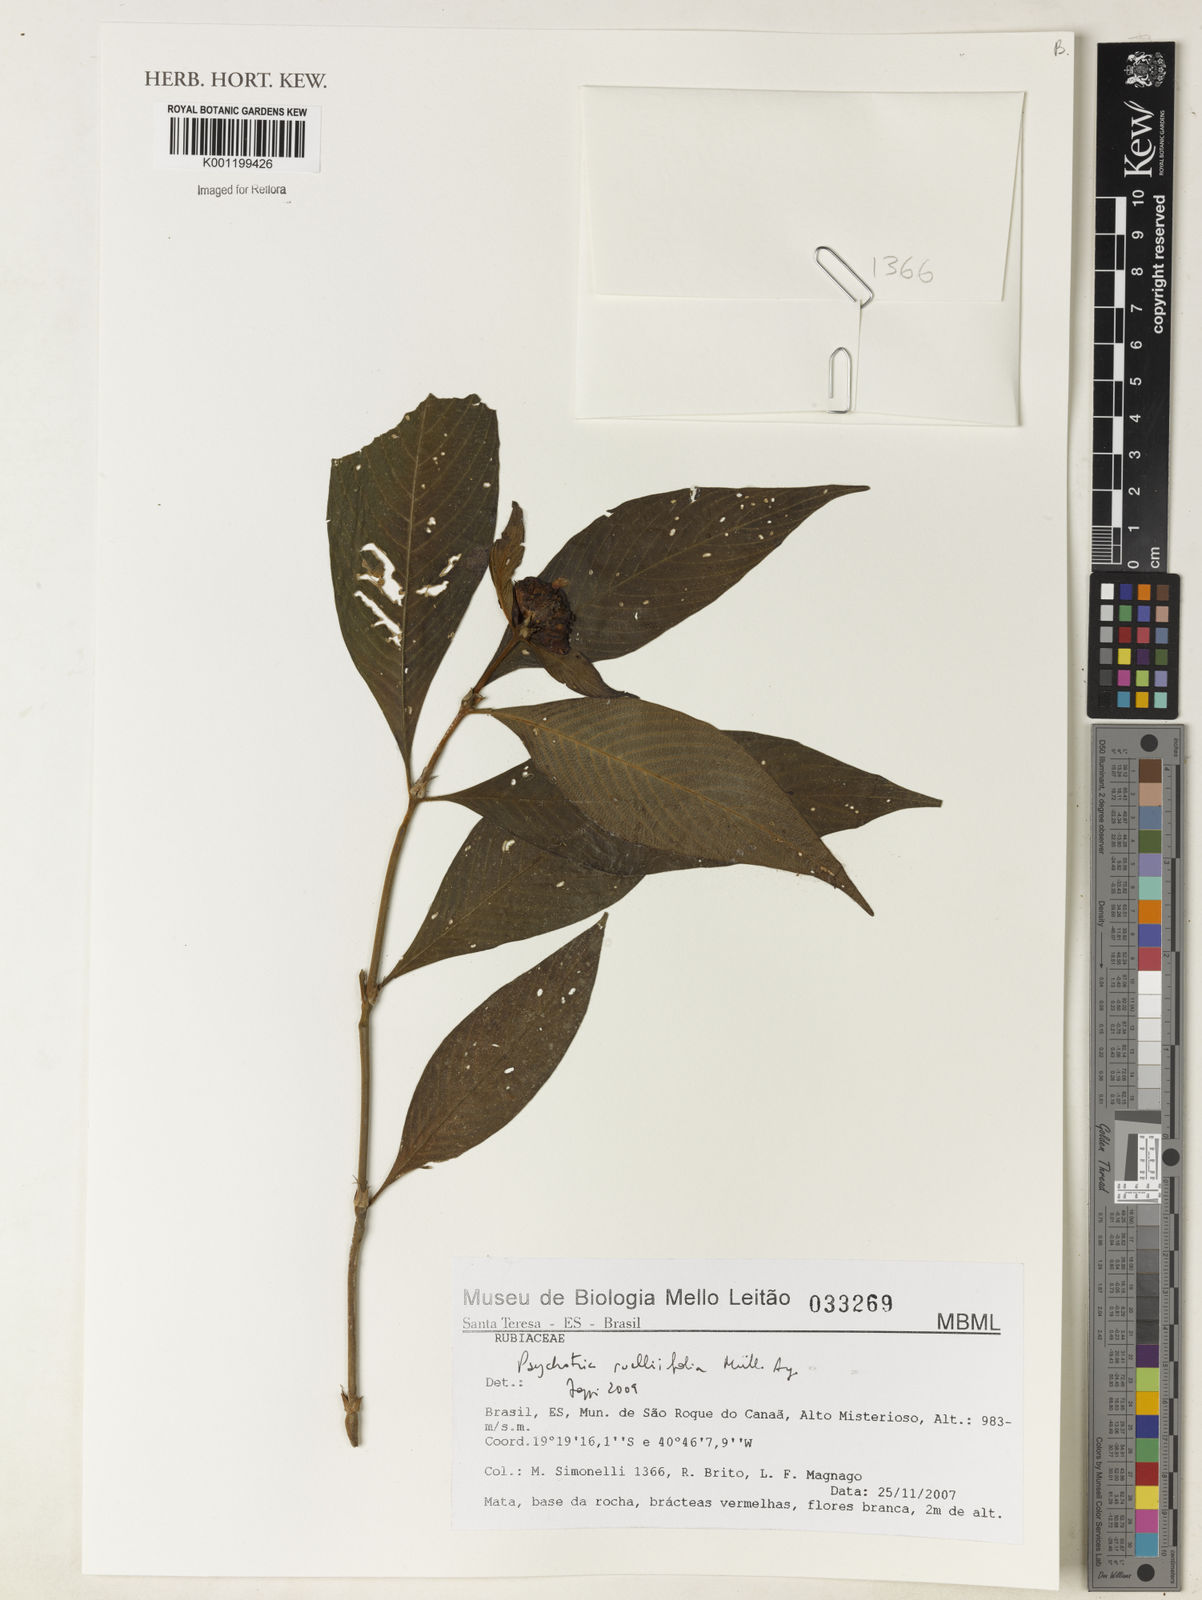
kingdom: Plantae
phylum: Tracheophyta
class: Magnoliopsida
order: Gentianales
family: Rubiaceae
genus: Psychotria
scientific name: Psychotria
